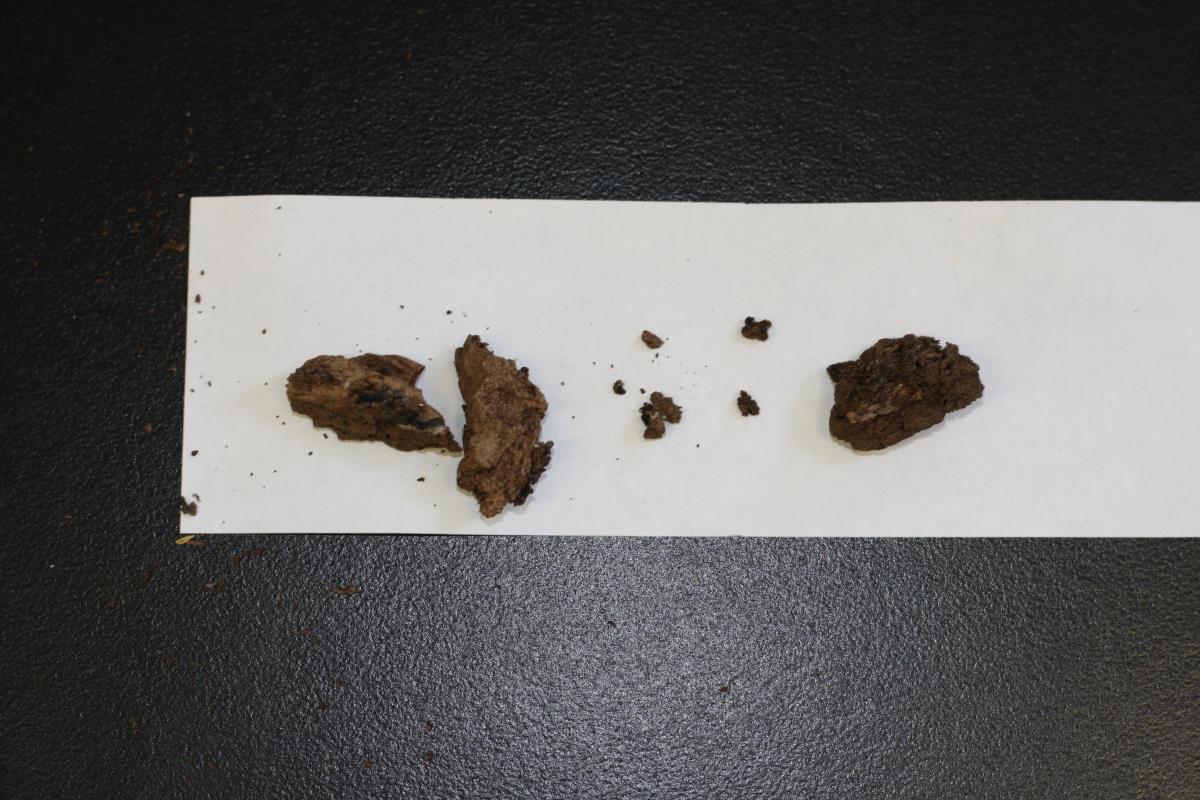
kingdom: Fungi
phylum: Basidiomycota
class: Agaricomycetes
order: Agaricales
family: Pleurotaceae
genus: Resupinatus
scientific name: Resupinatus applicatus
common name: Smoked oysterling
